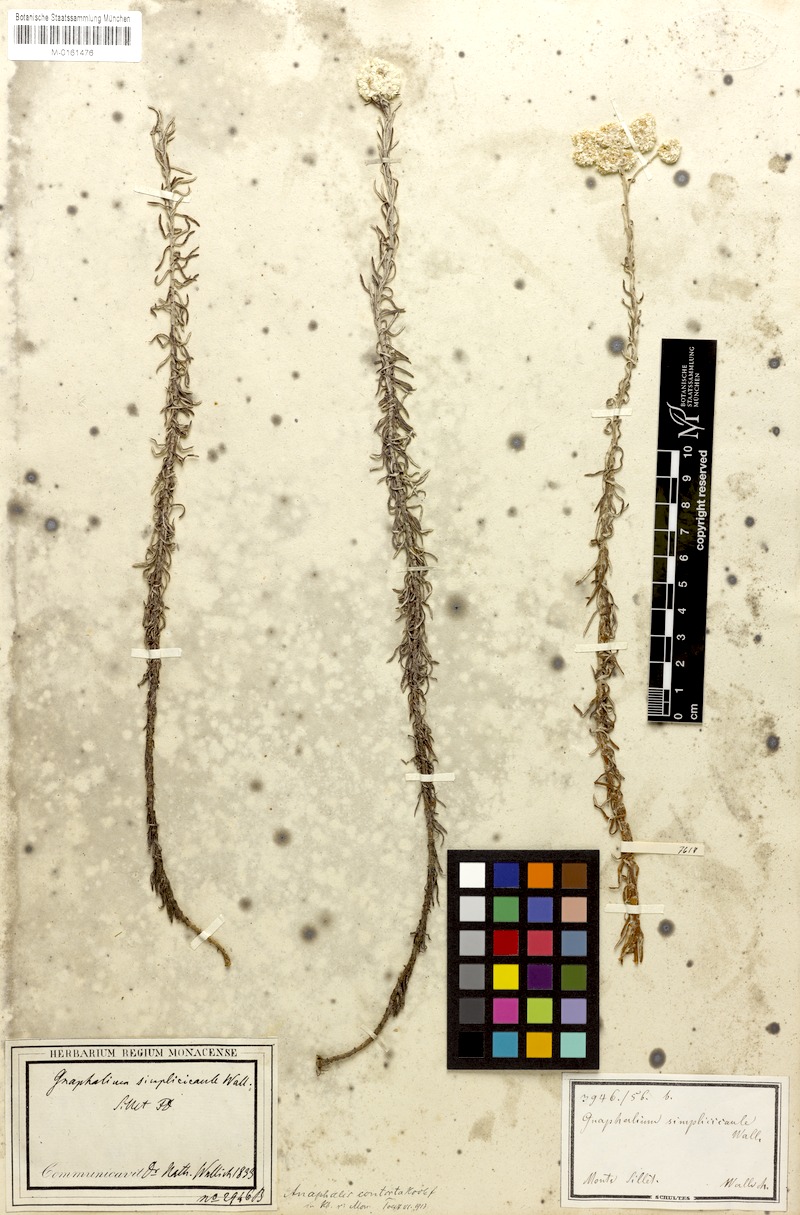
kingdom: Plantae
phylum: Tracheophyta
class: Magnoliopsida
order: Asterales
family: Asteraceae
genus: Anaphalis
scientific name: Anaphalis contorta
